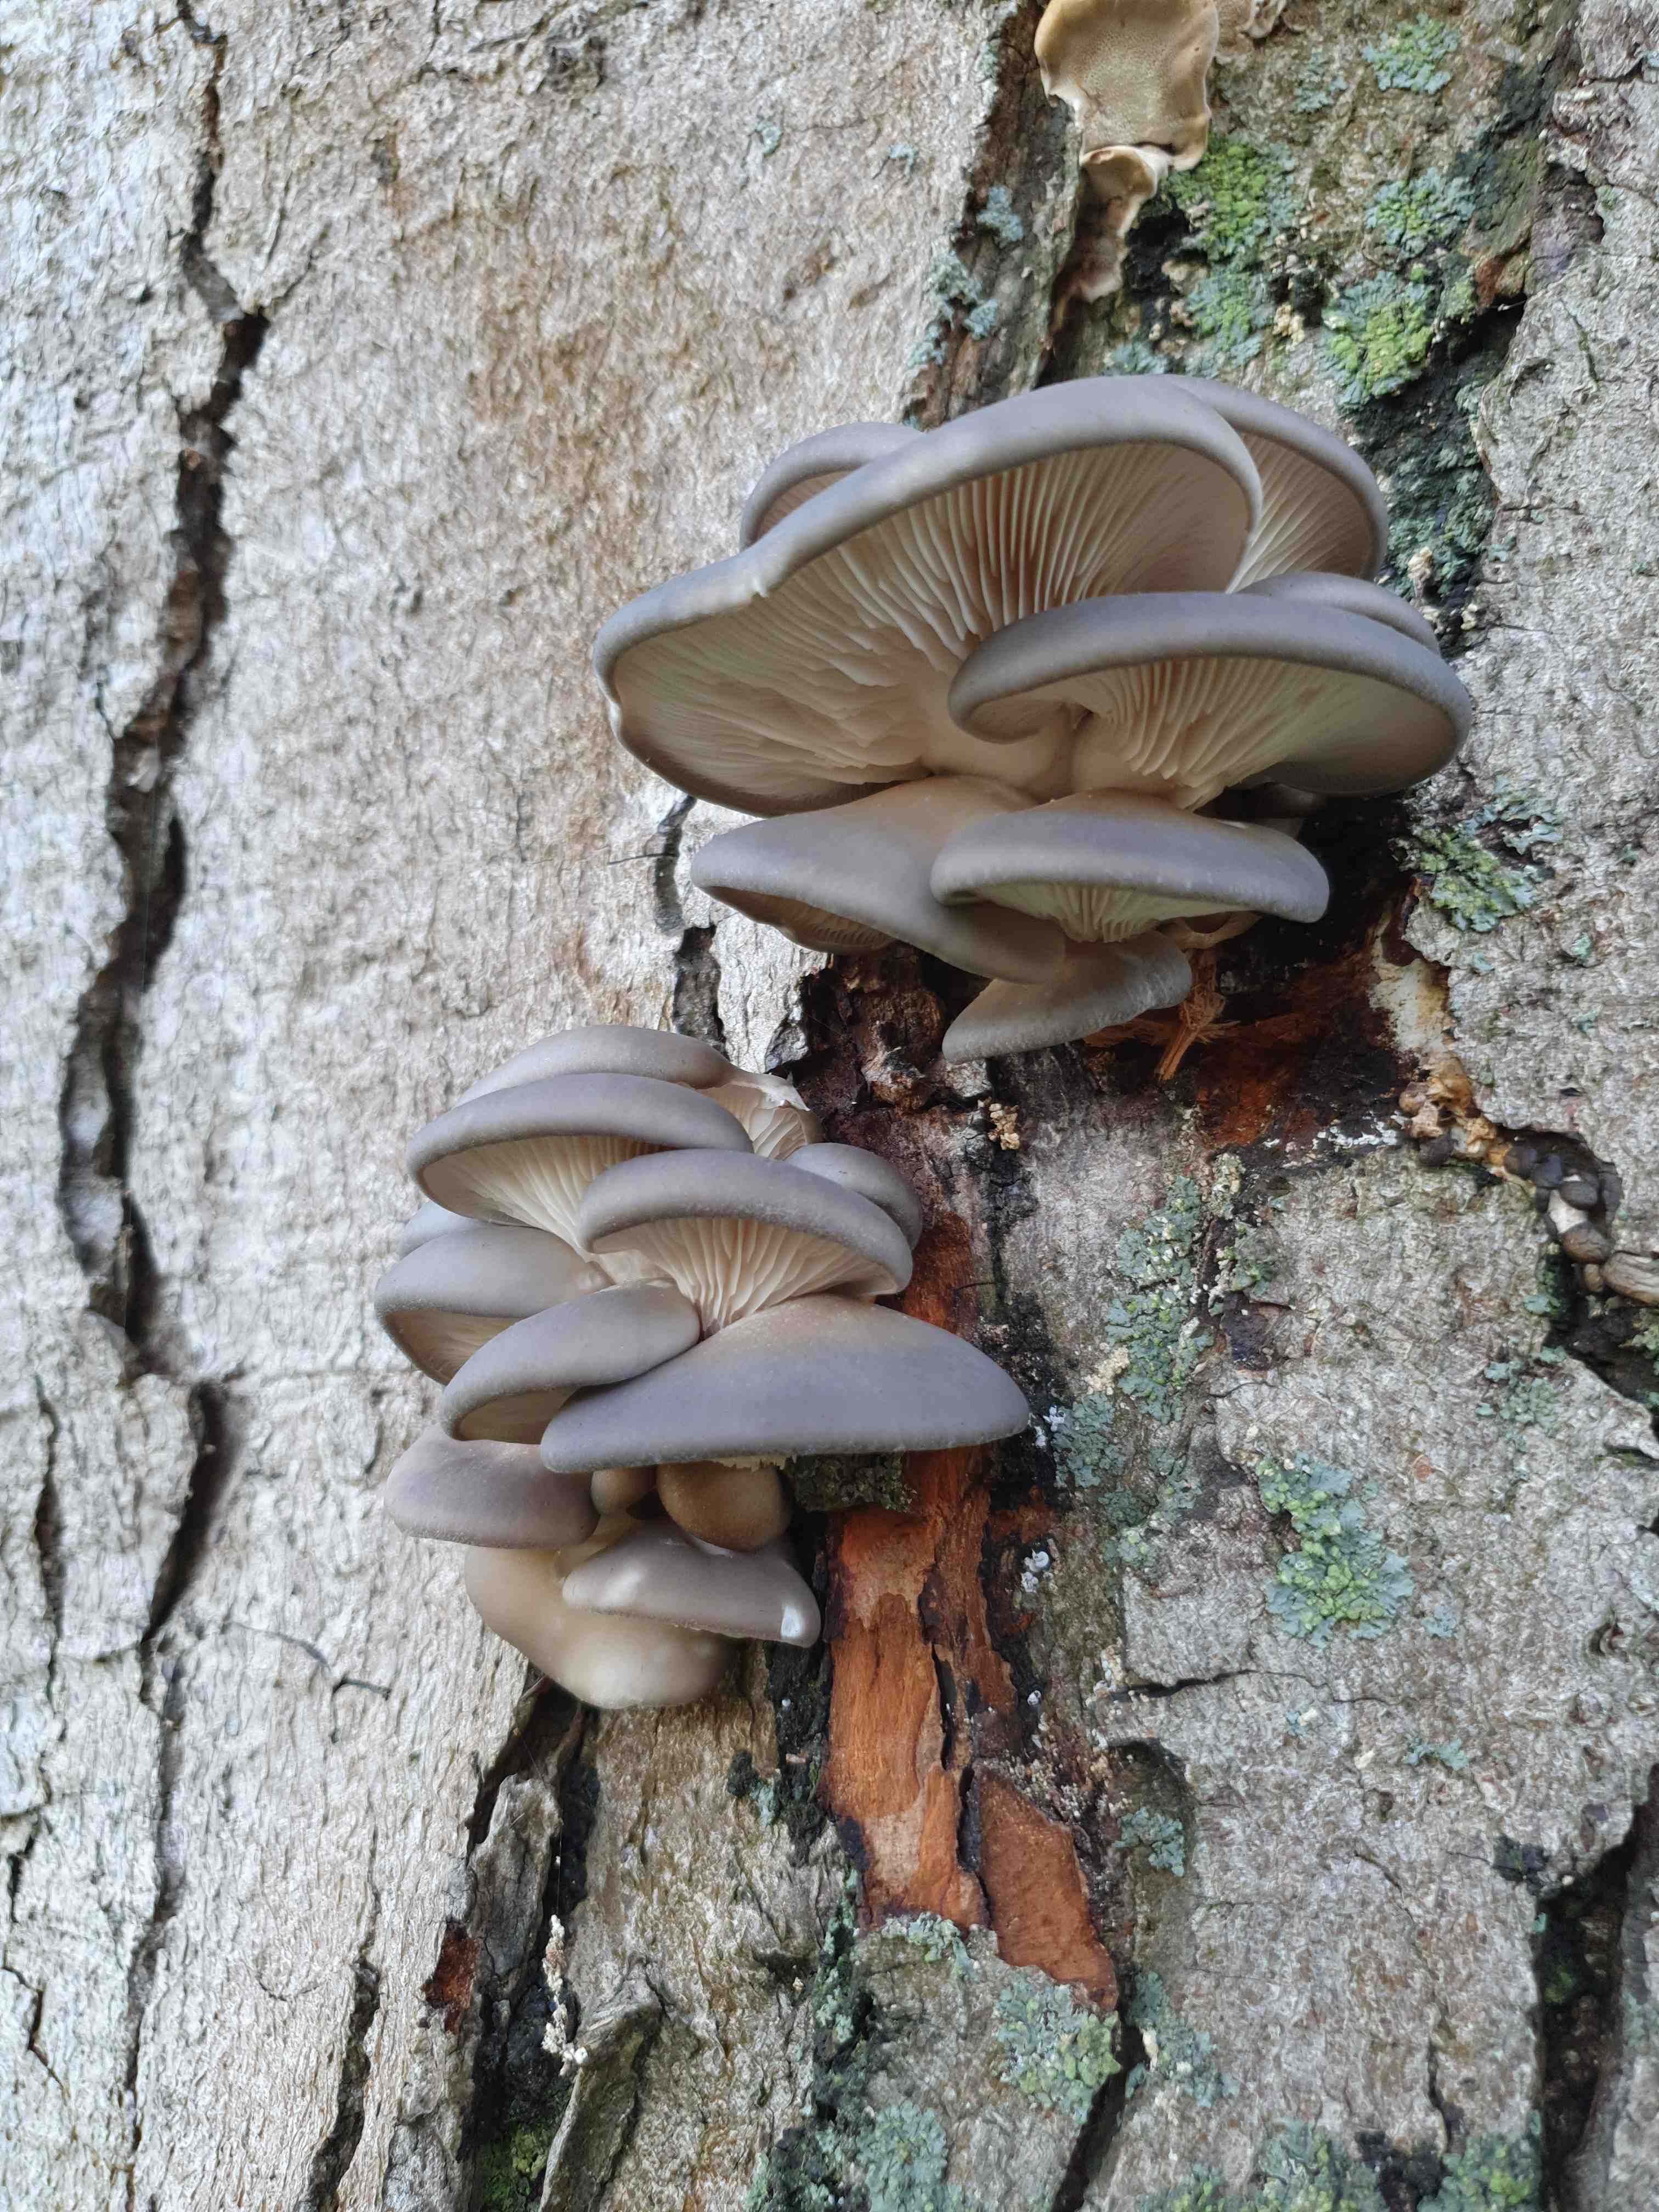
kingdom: Fungi
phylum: Basidiomycota
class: Agaricomycetes
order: Agaricales
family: Pleurotaceae
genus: Pleurotus
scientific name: Pleurotus ostreatus
